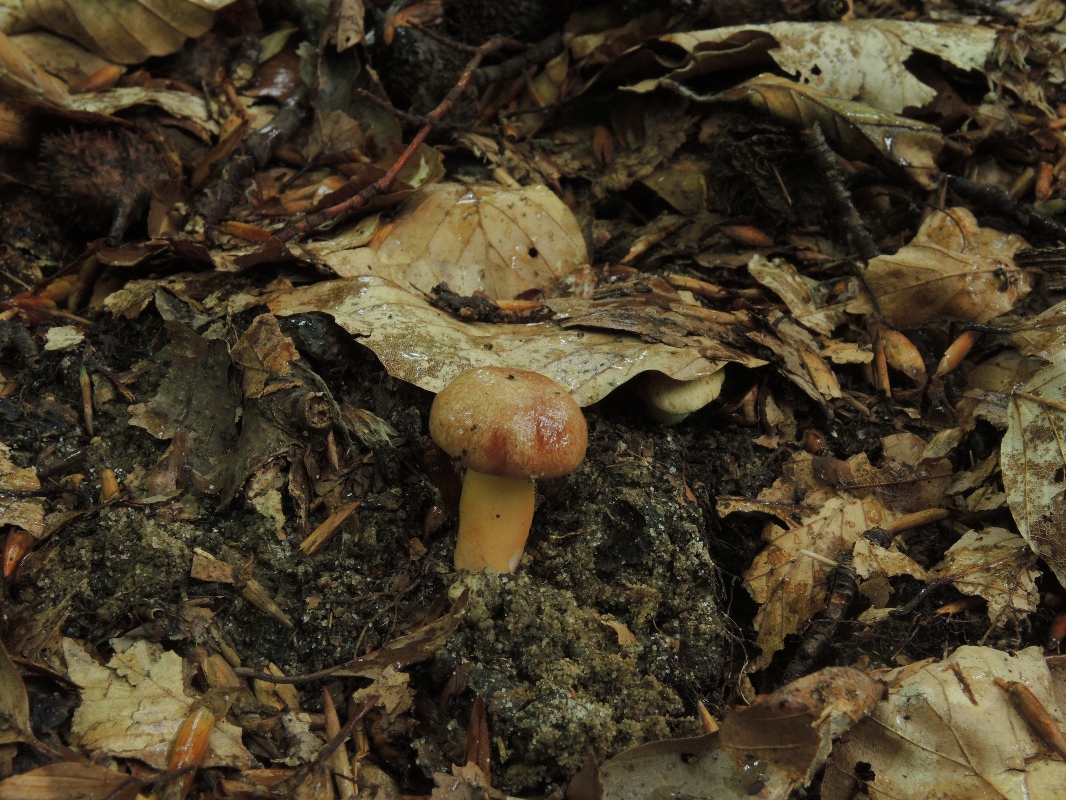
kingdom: Fungi
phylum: Basidiomycota
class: Agaricomycetes
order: Boletales
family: Boletaceae
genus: Aureoboletus
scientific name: Aureoboletus gentilis
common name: guldrørhat
